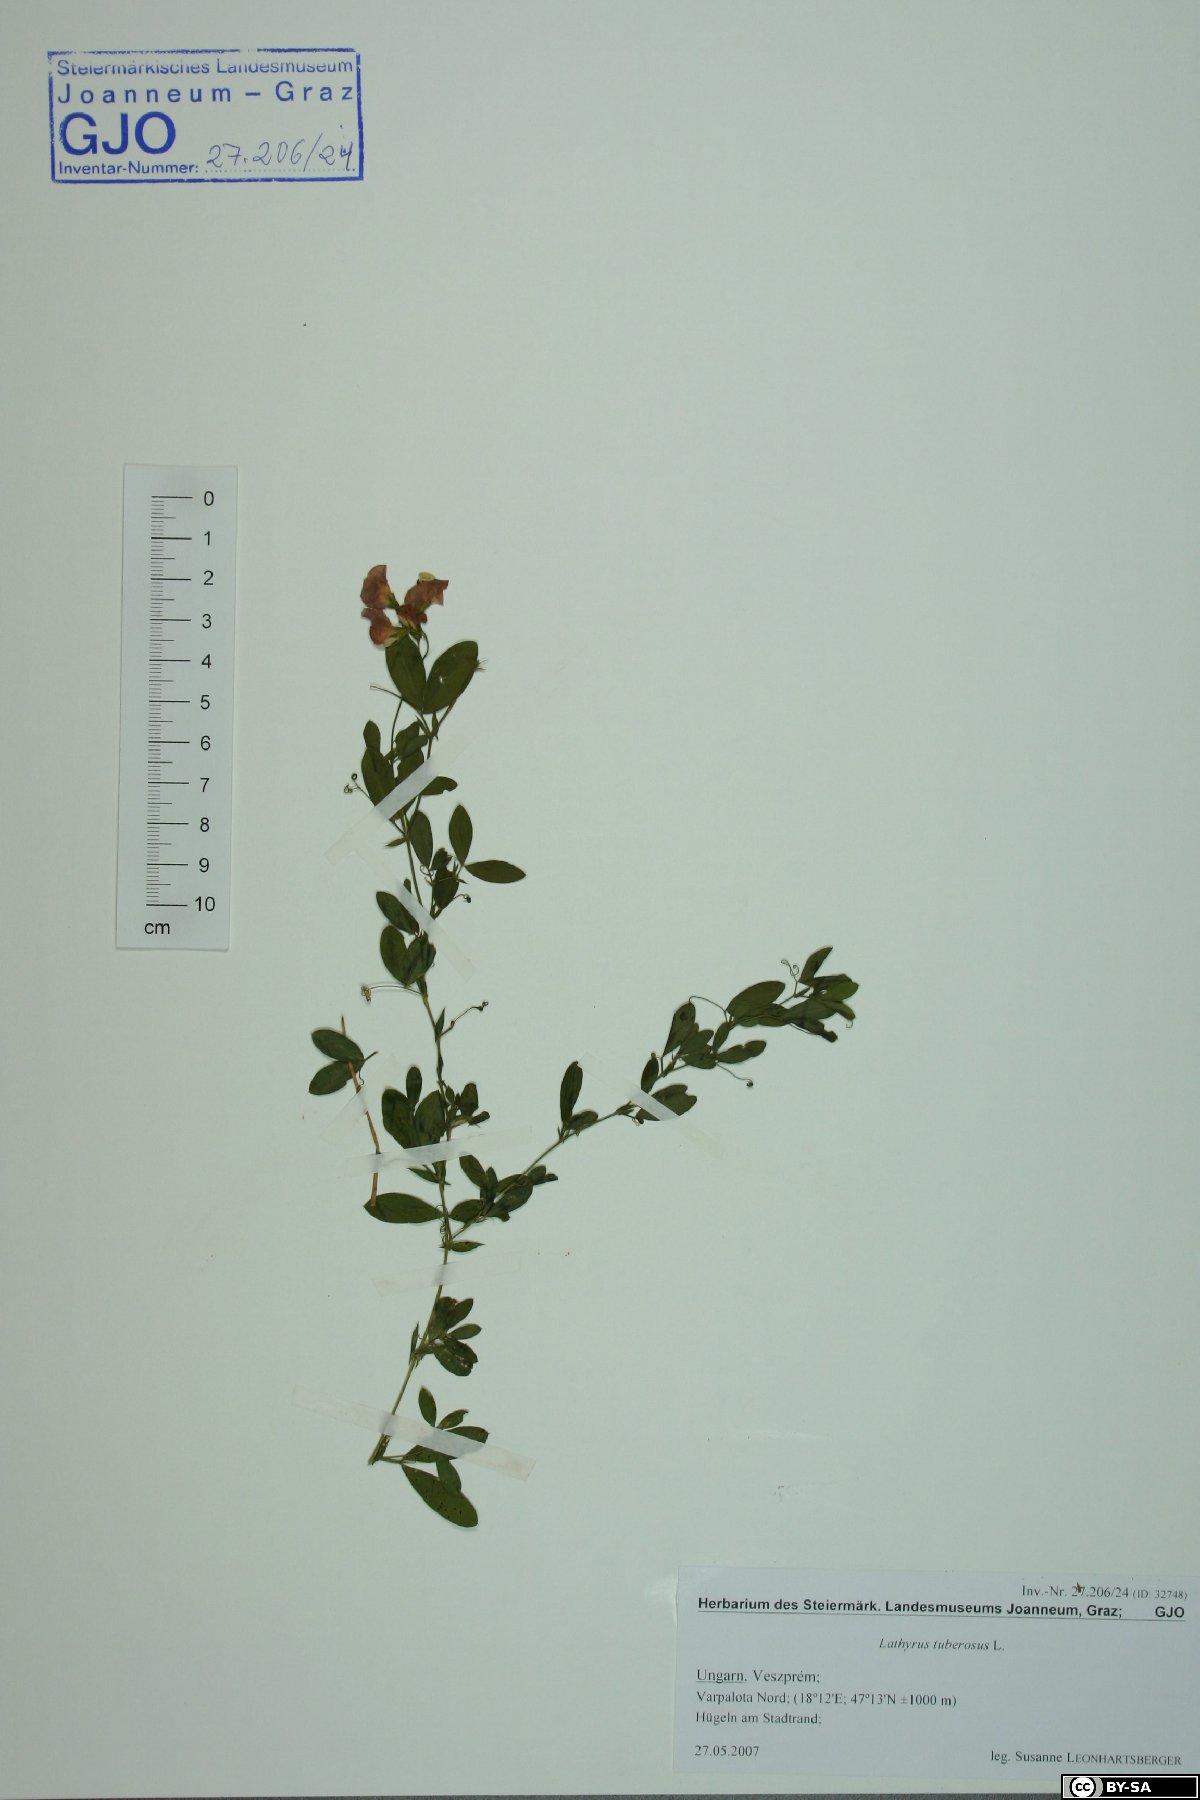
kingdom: Plantae
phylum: Tracheophyta
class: Magnoliopsida
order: Fabales
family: Fabaceae
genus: Lathyrus
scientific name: Lathyrus tuberosus
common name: Tuberous pea
